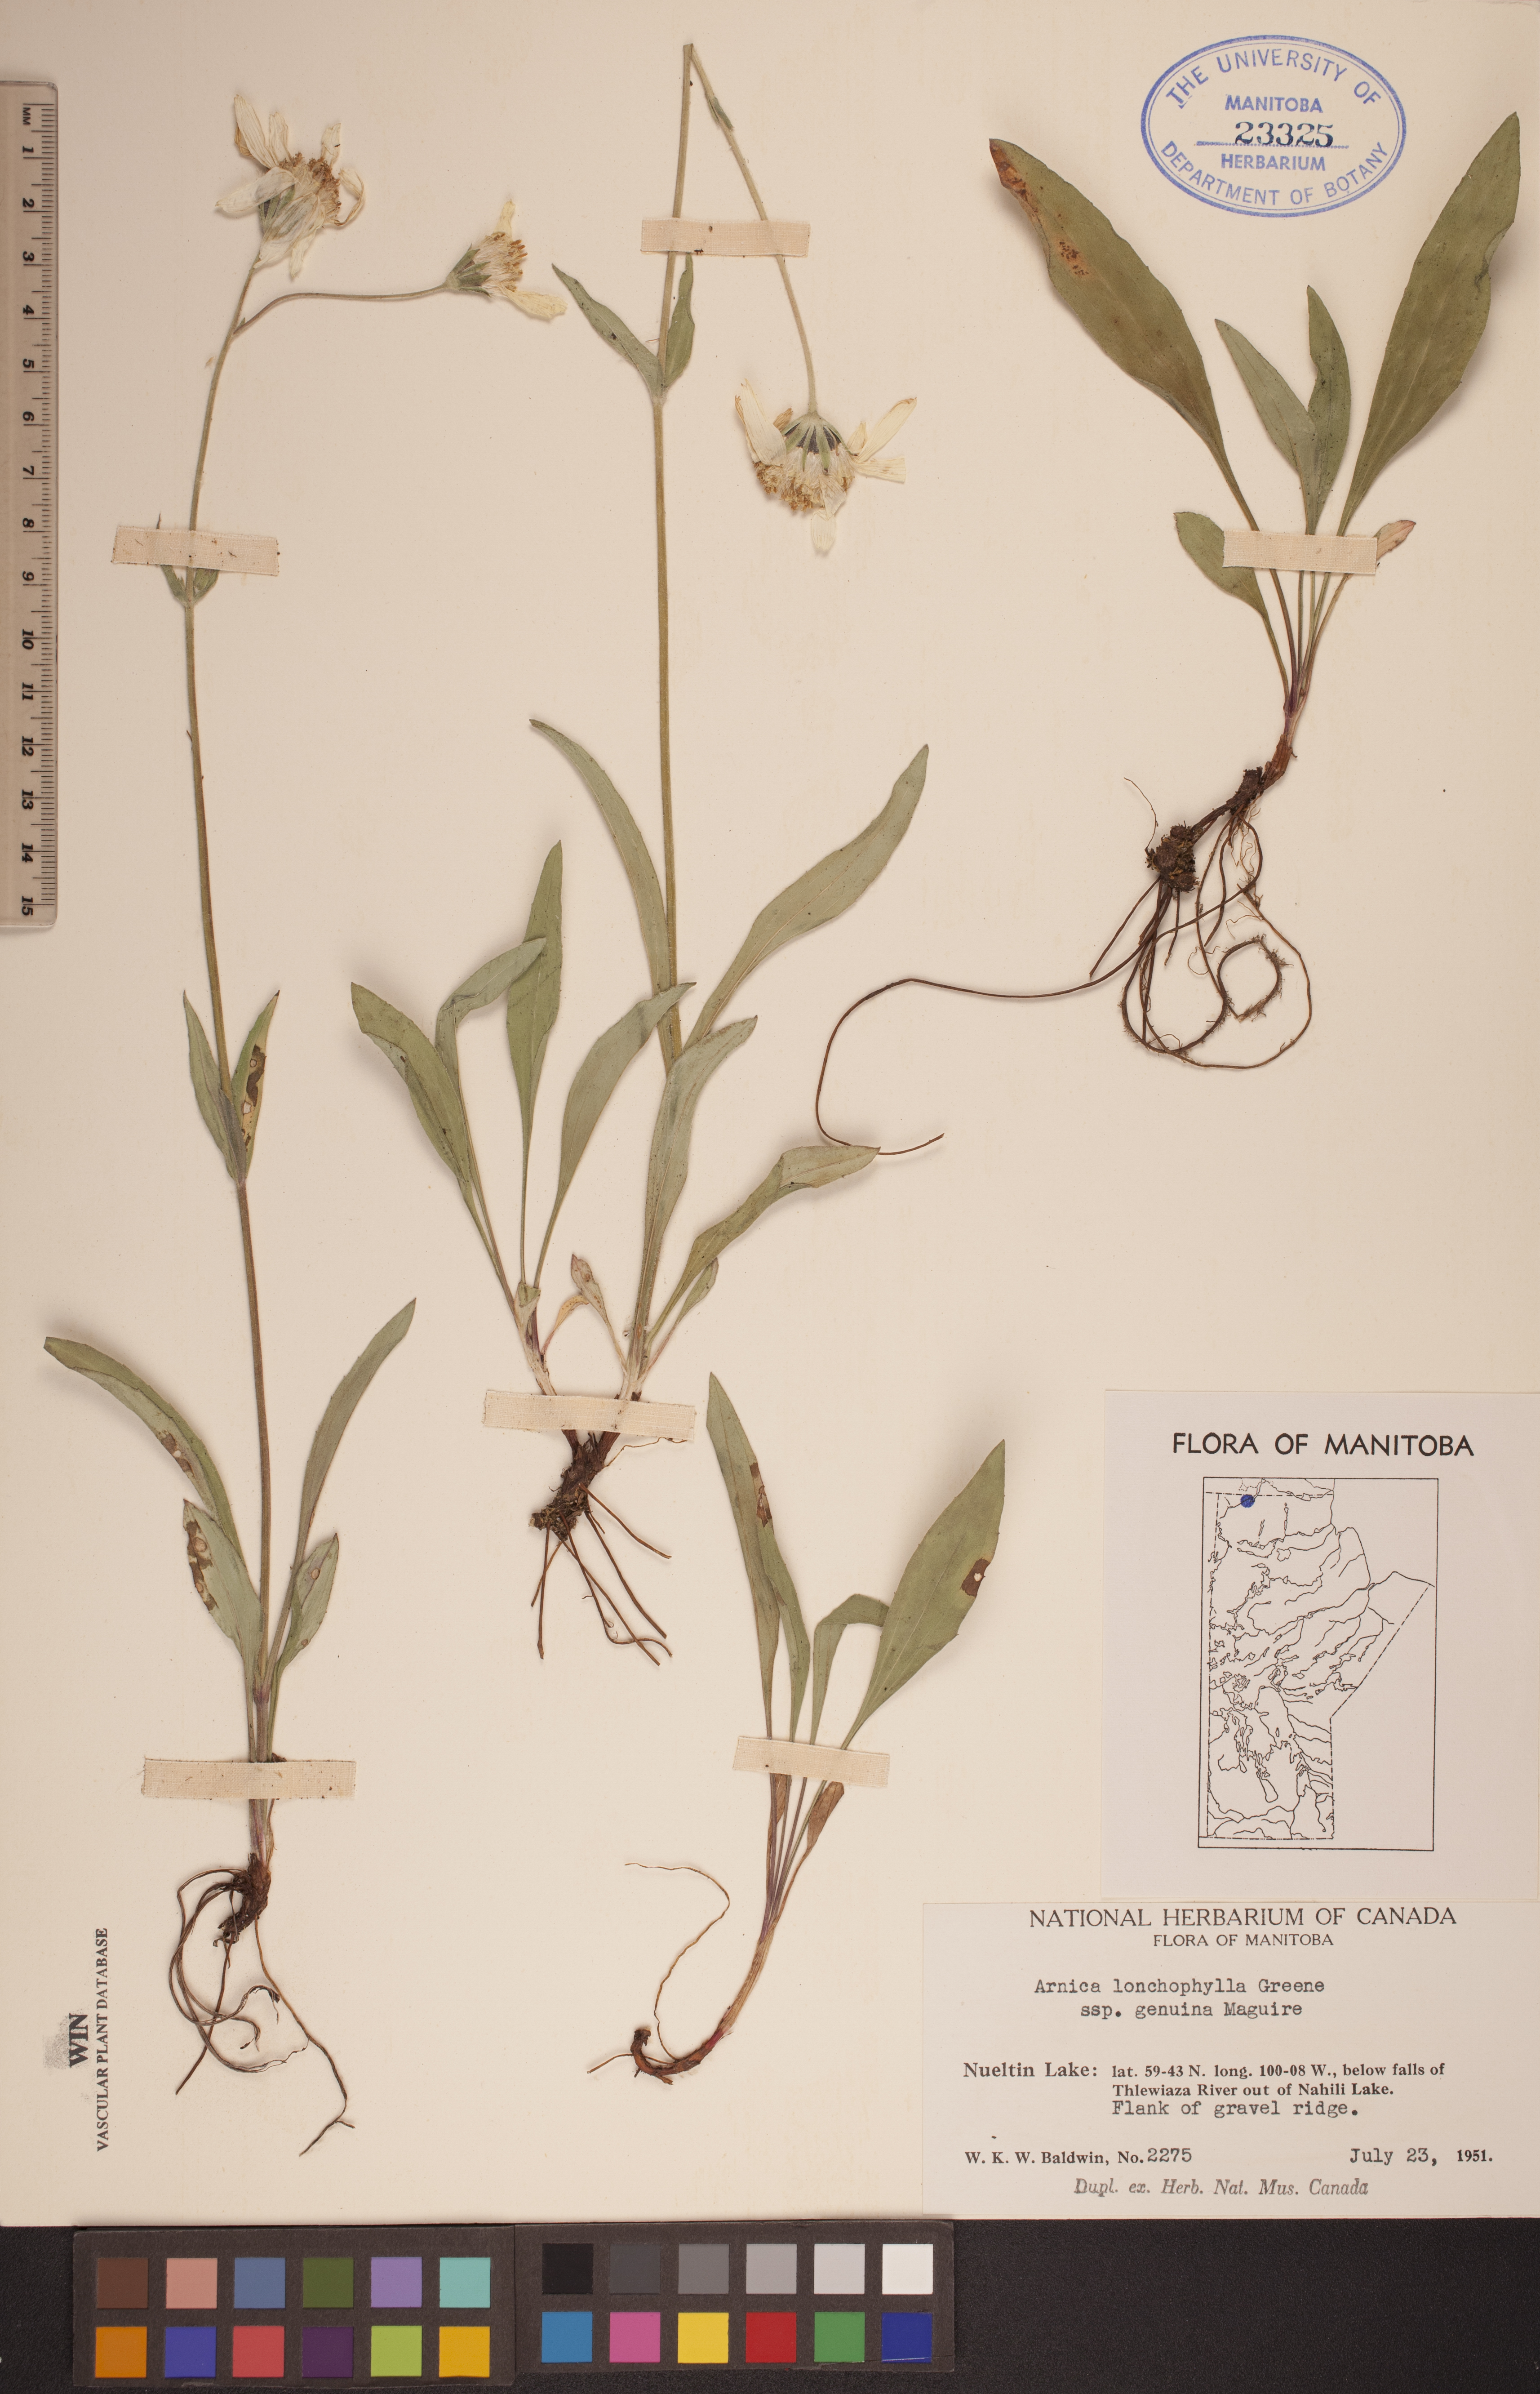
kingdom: Plantae
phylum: Tracheophyta
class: Magnoliopsida
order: Asterales
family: Asteraceae
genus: Arnica
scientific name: Arnica lonchophylla
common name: Northern arnica
